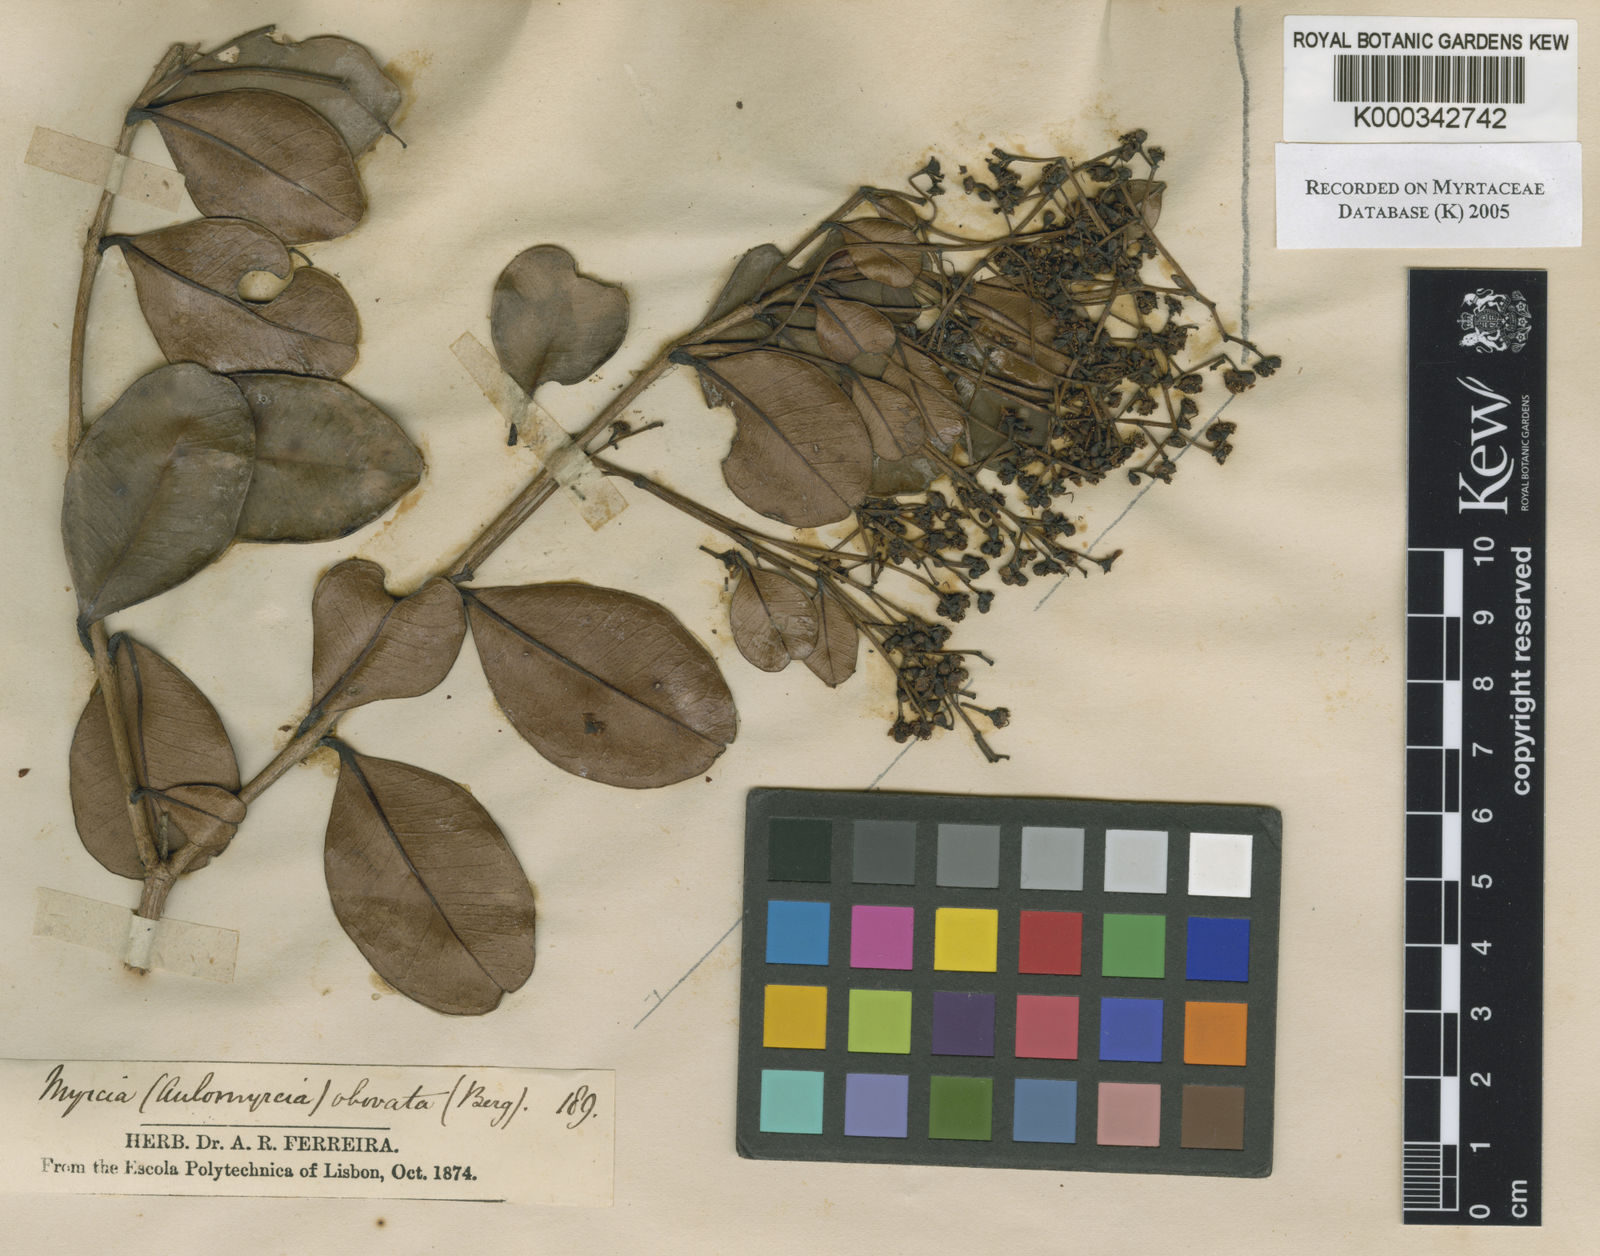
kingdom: Plantae
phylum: Tracheophyta
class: Magnoliopsida
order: Myrtales
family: Myrtaceae
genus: Myrcia
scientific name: Myrcia glabra
